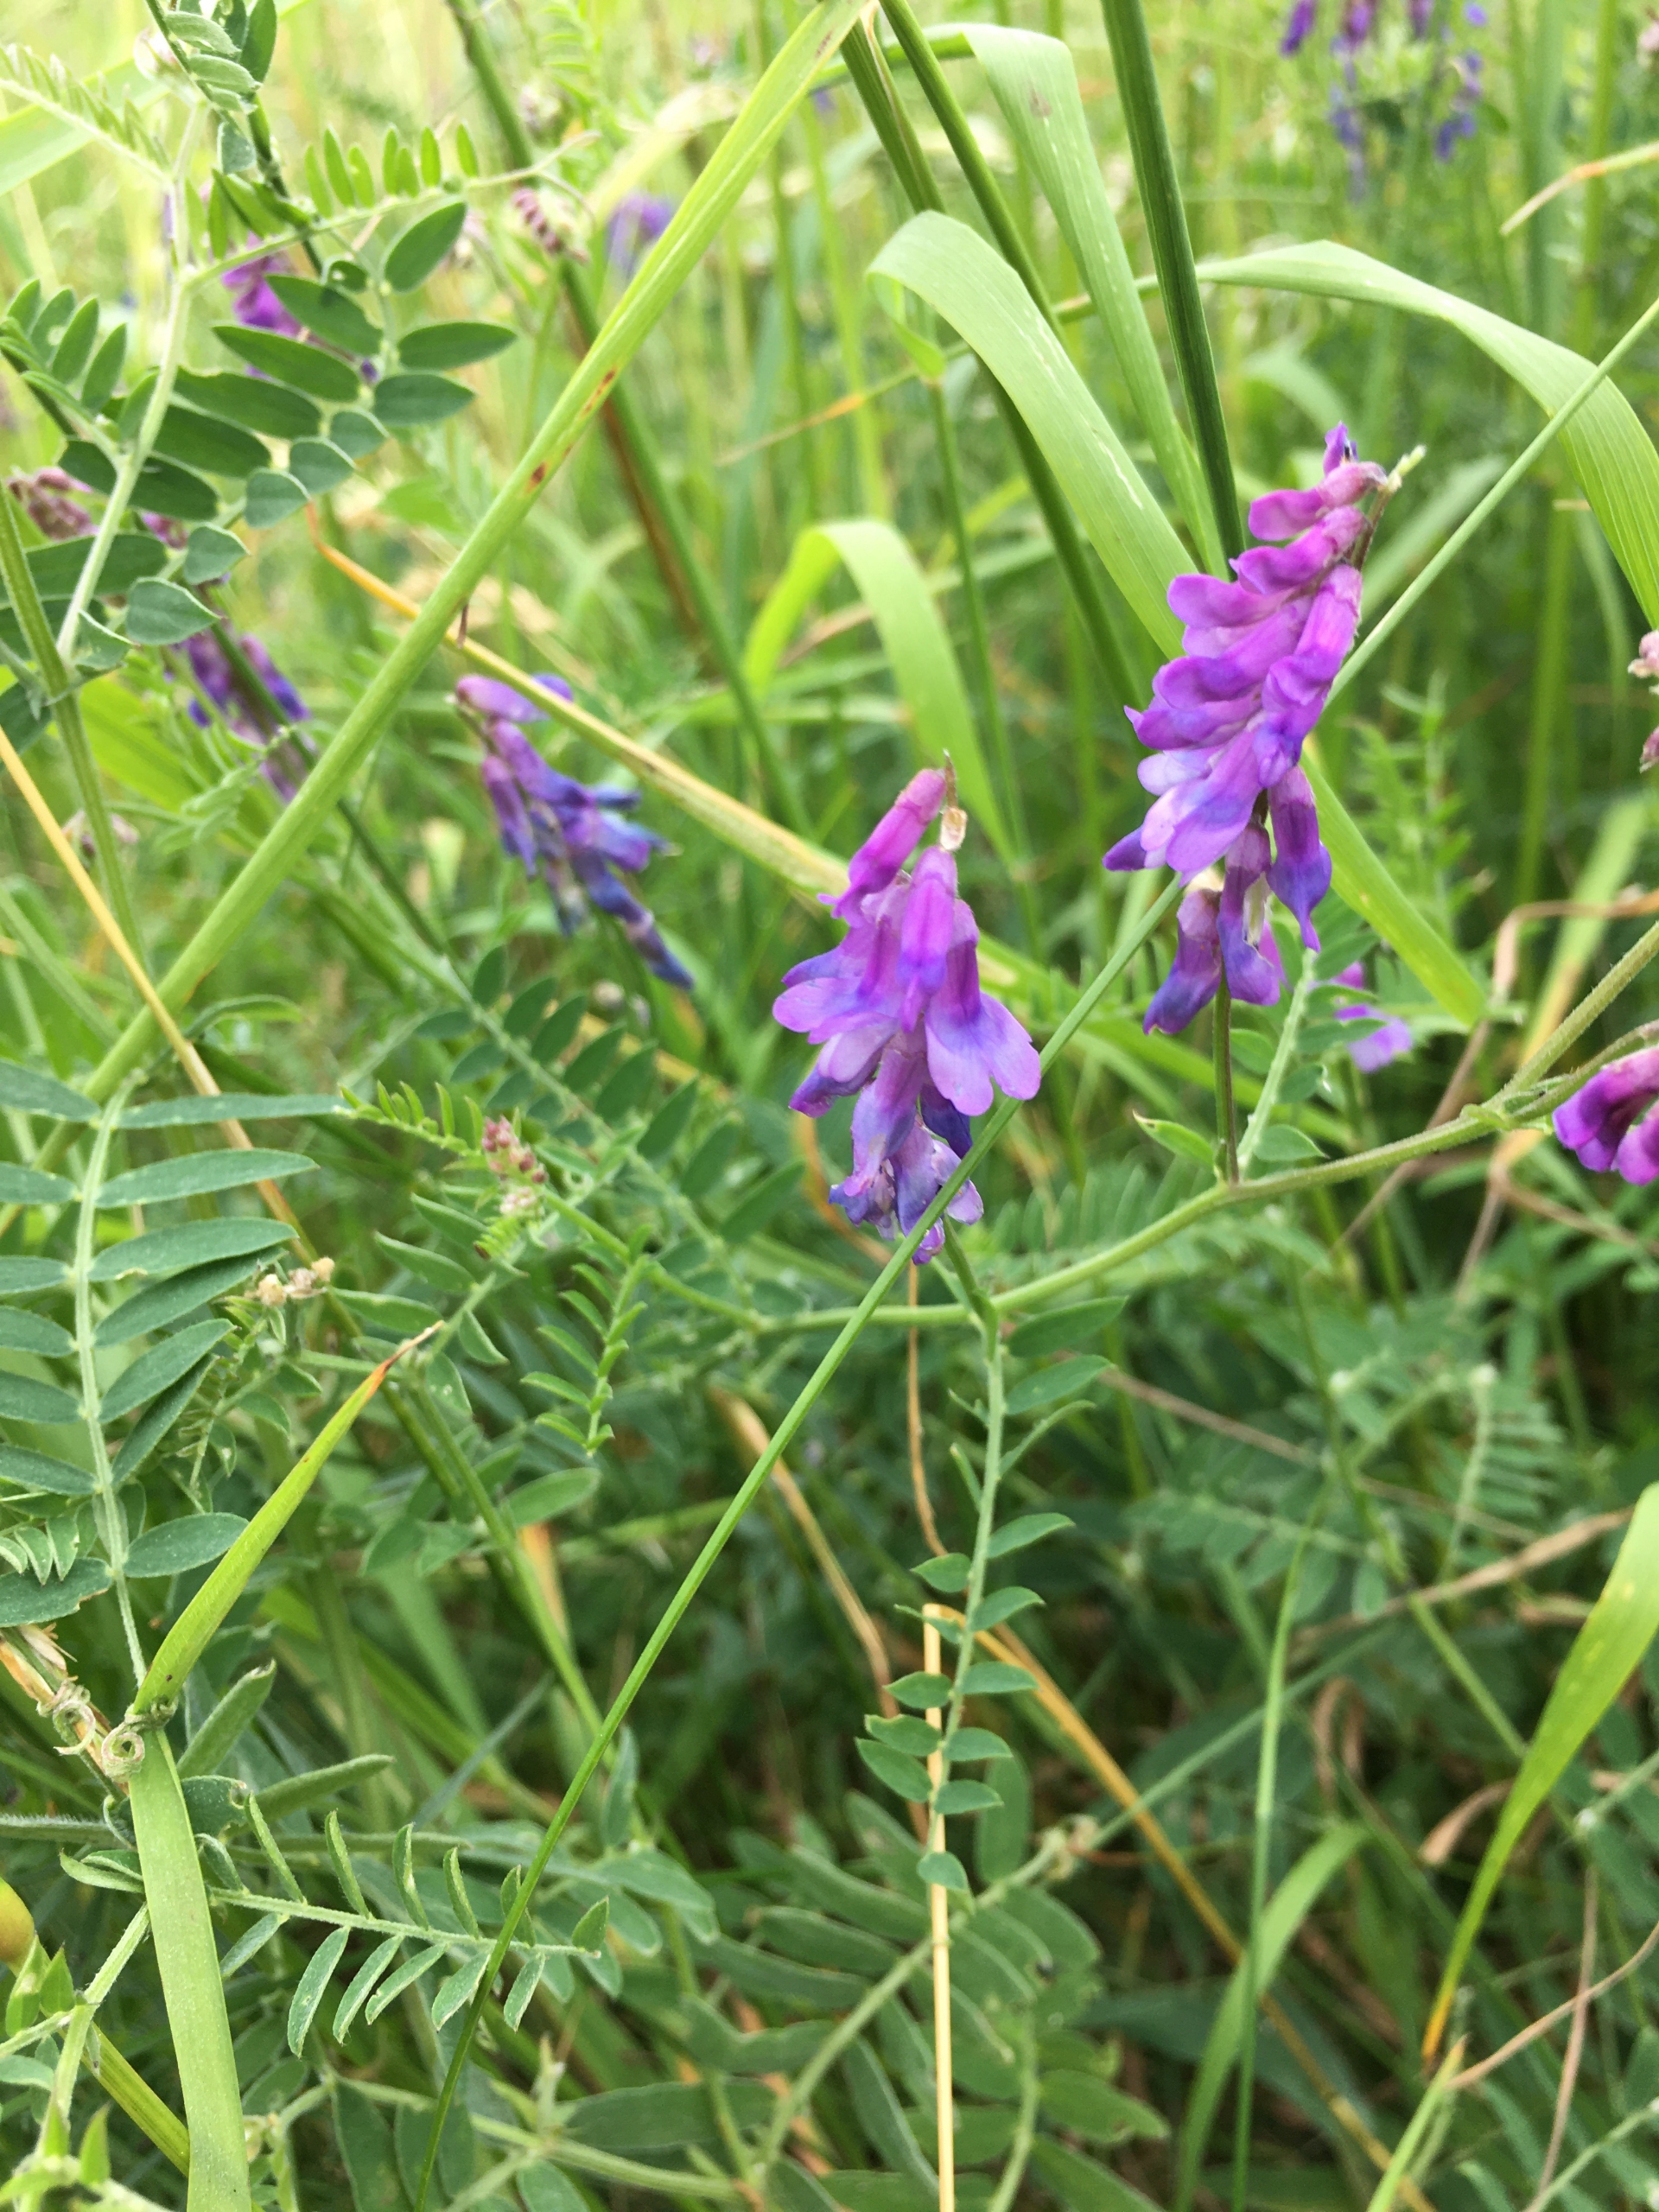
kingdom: Plantae
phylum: Tracheophyta
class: Magnoliopsida
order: Fabales
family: Fabaceae
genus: Vicia
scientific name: Vicia cracca
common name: Muse-vikke
